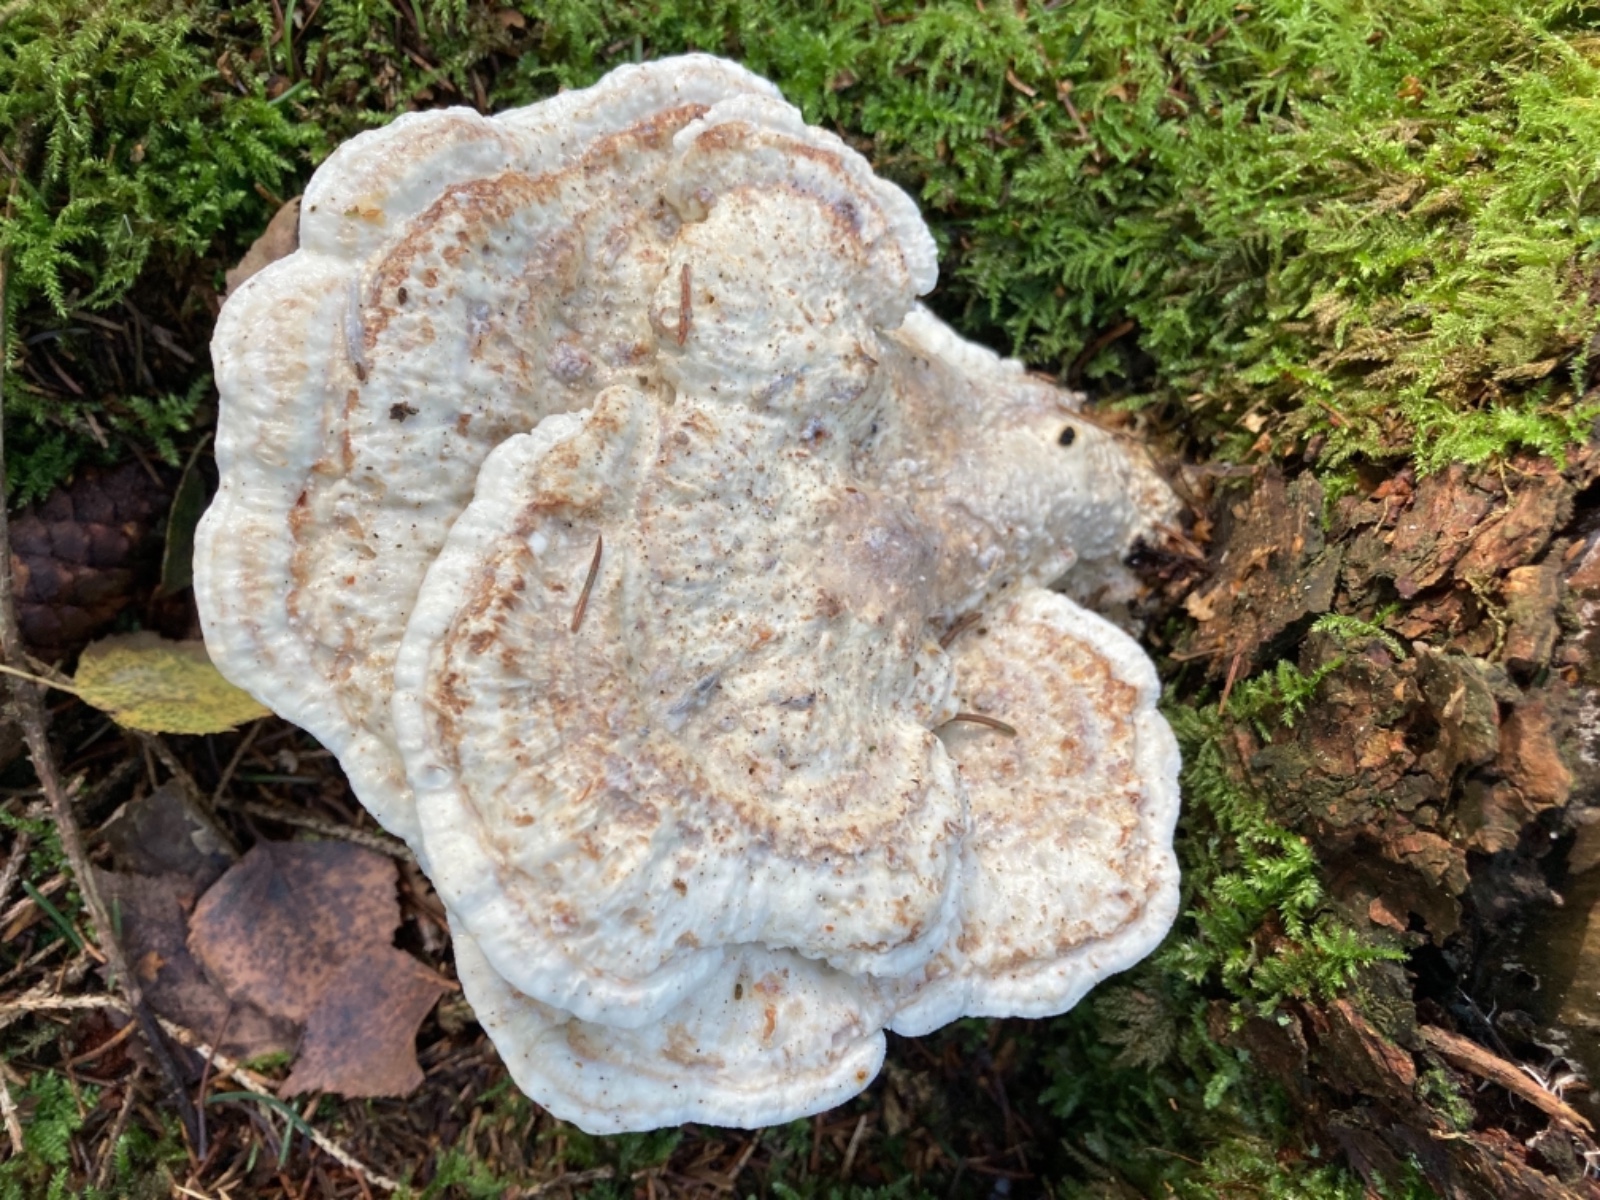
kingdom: Fungi
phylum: Basidiomycota
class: Agaricomycetes
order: Polyporales
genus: Calcipostia
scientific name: Calcipostia guttulata
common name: dråbe-kødporesvamp
